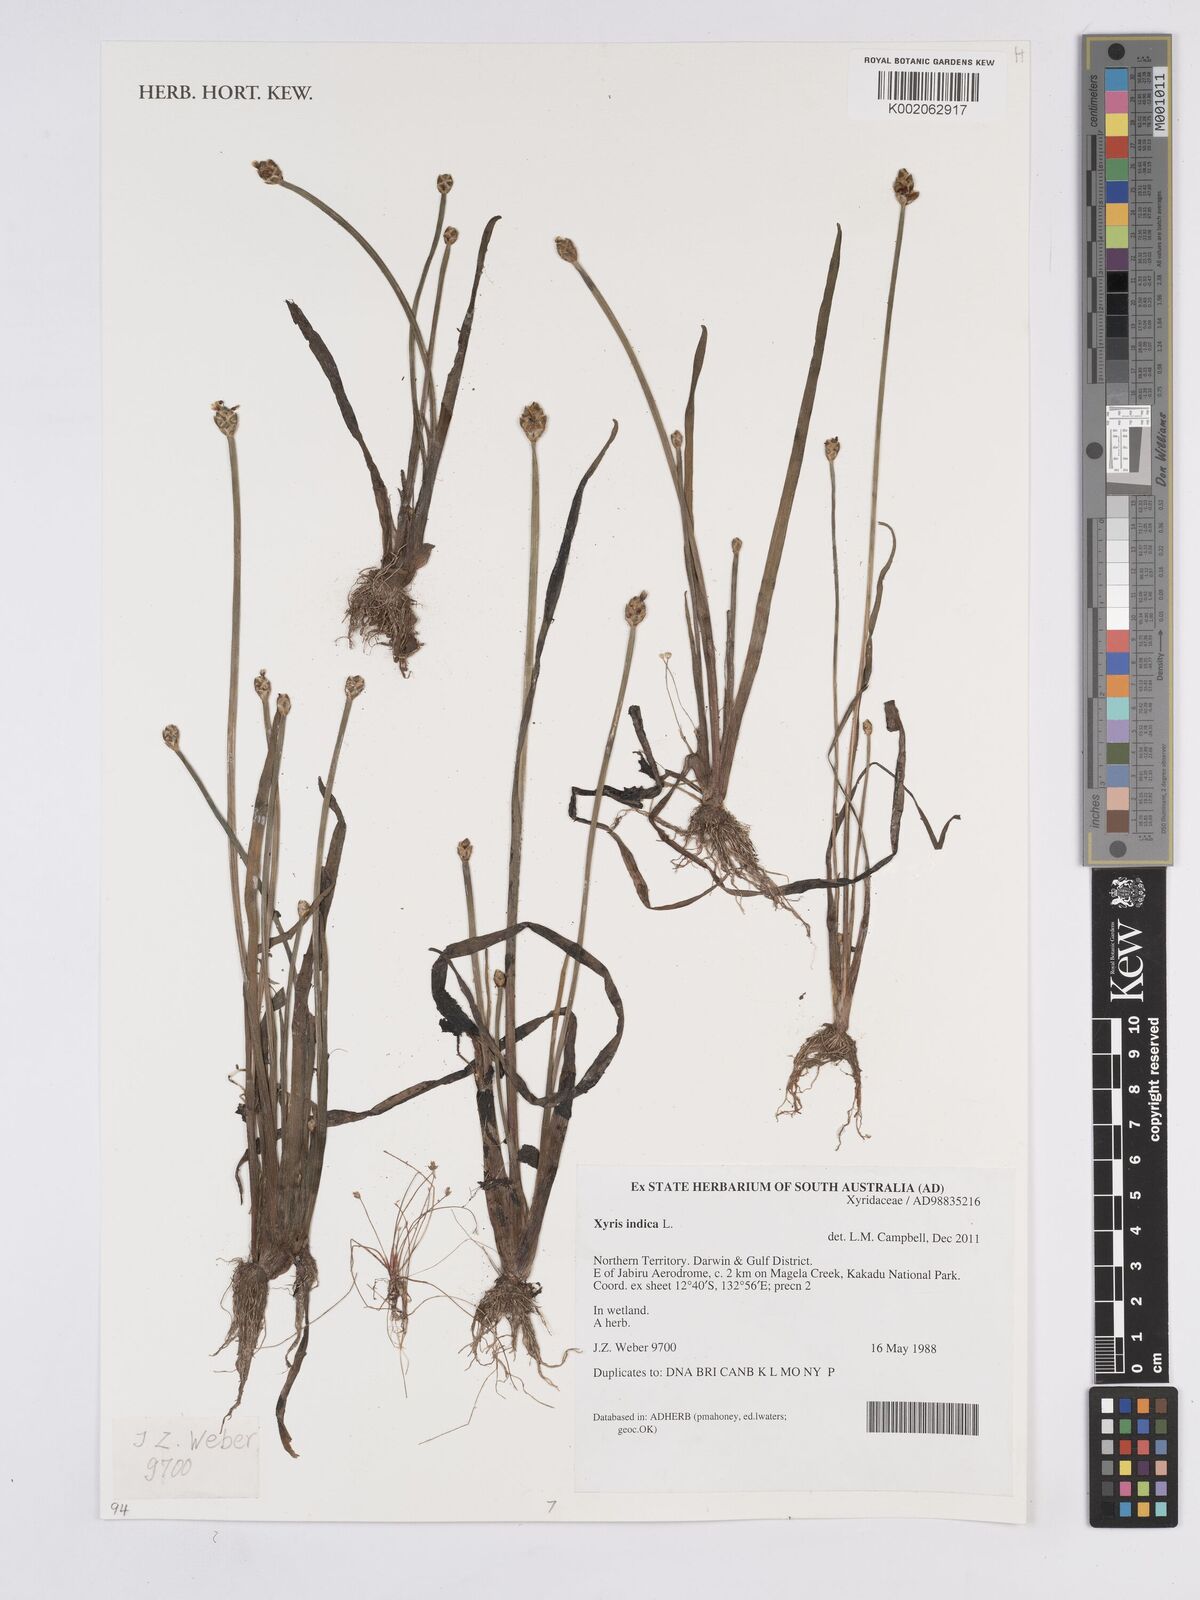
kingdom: Plantae
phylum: Tracheophyta
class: Liliopsida
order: Poales
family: Xyridaceae
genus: Xyris
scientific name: Xyris indica
